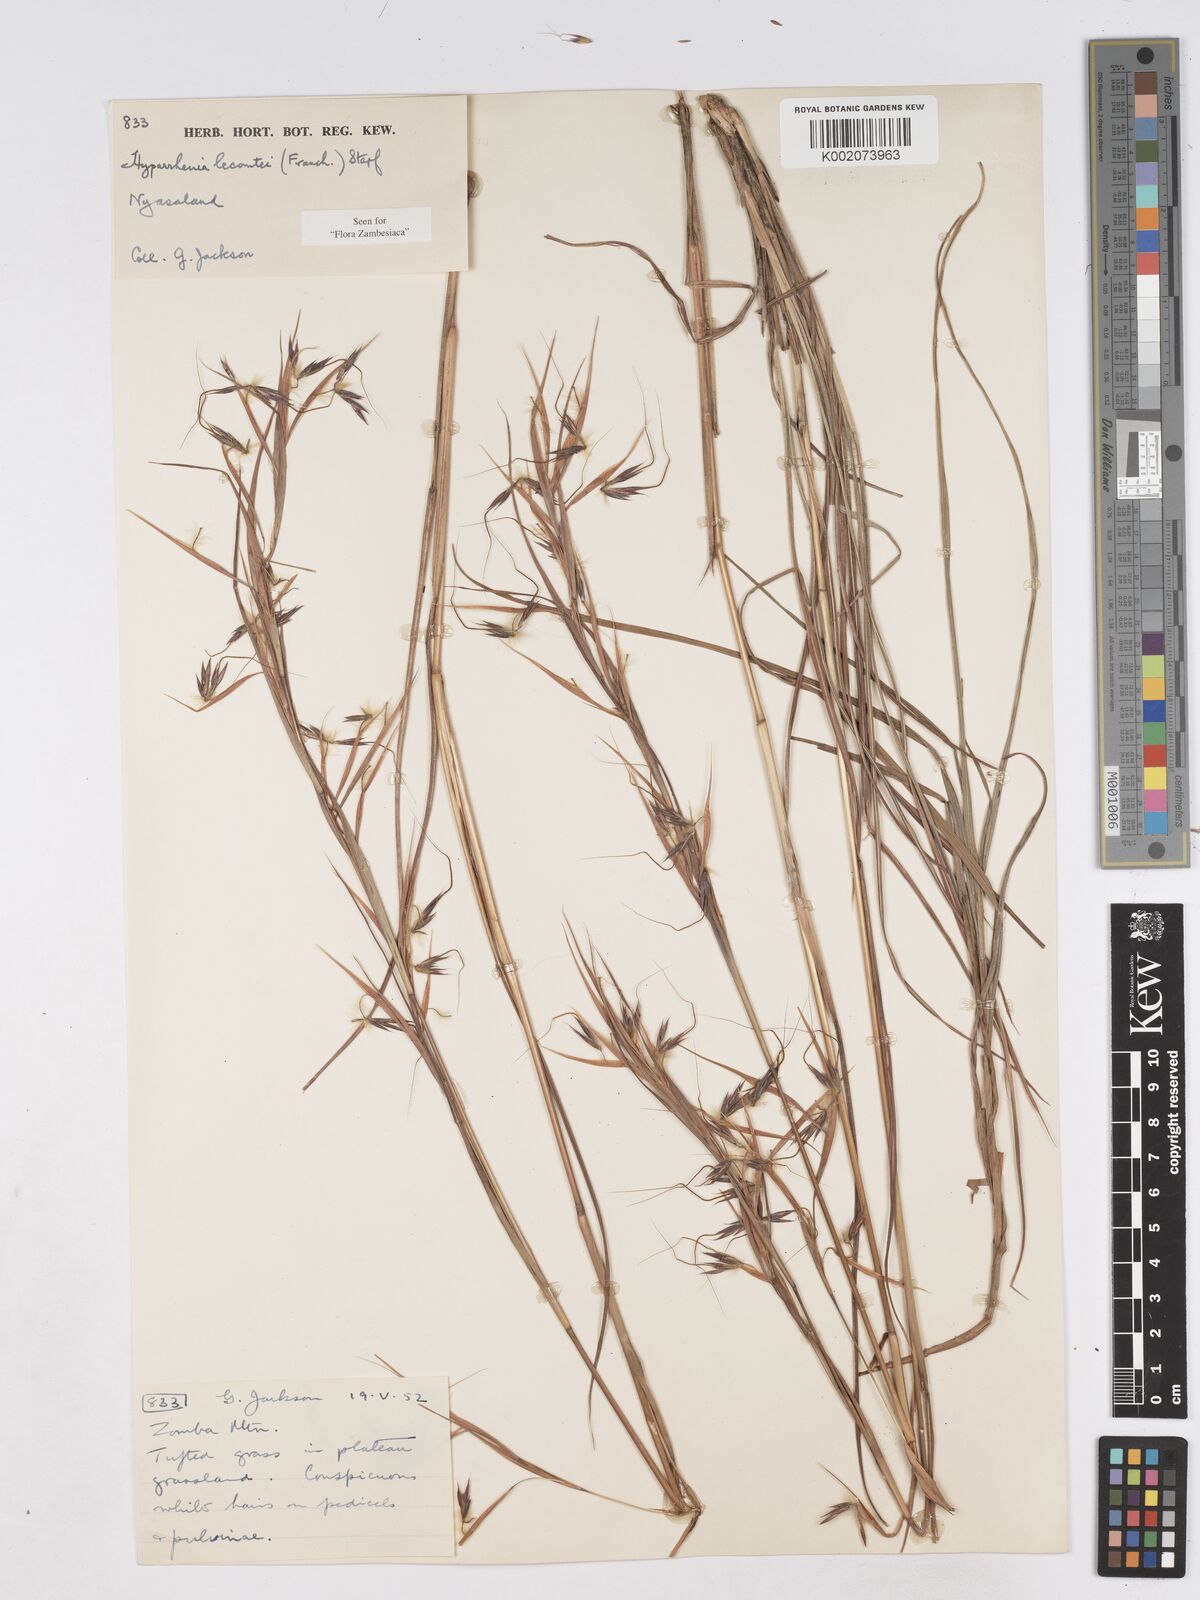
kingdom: Plantae
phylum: Tracheophyta
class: Liliopsida
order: Poales
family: Poaceae
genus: Hyparrhenia
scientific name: Hyparrhenia newtonii
